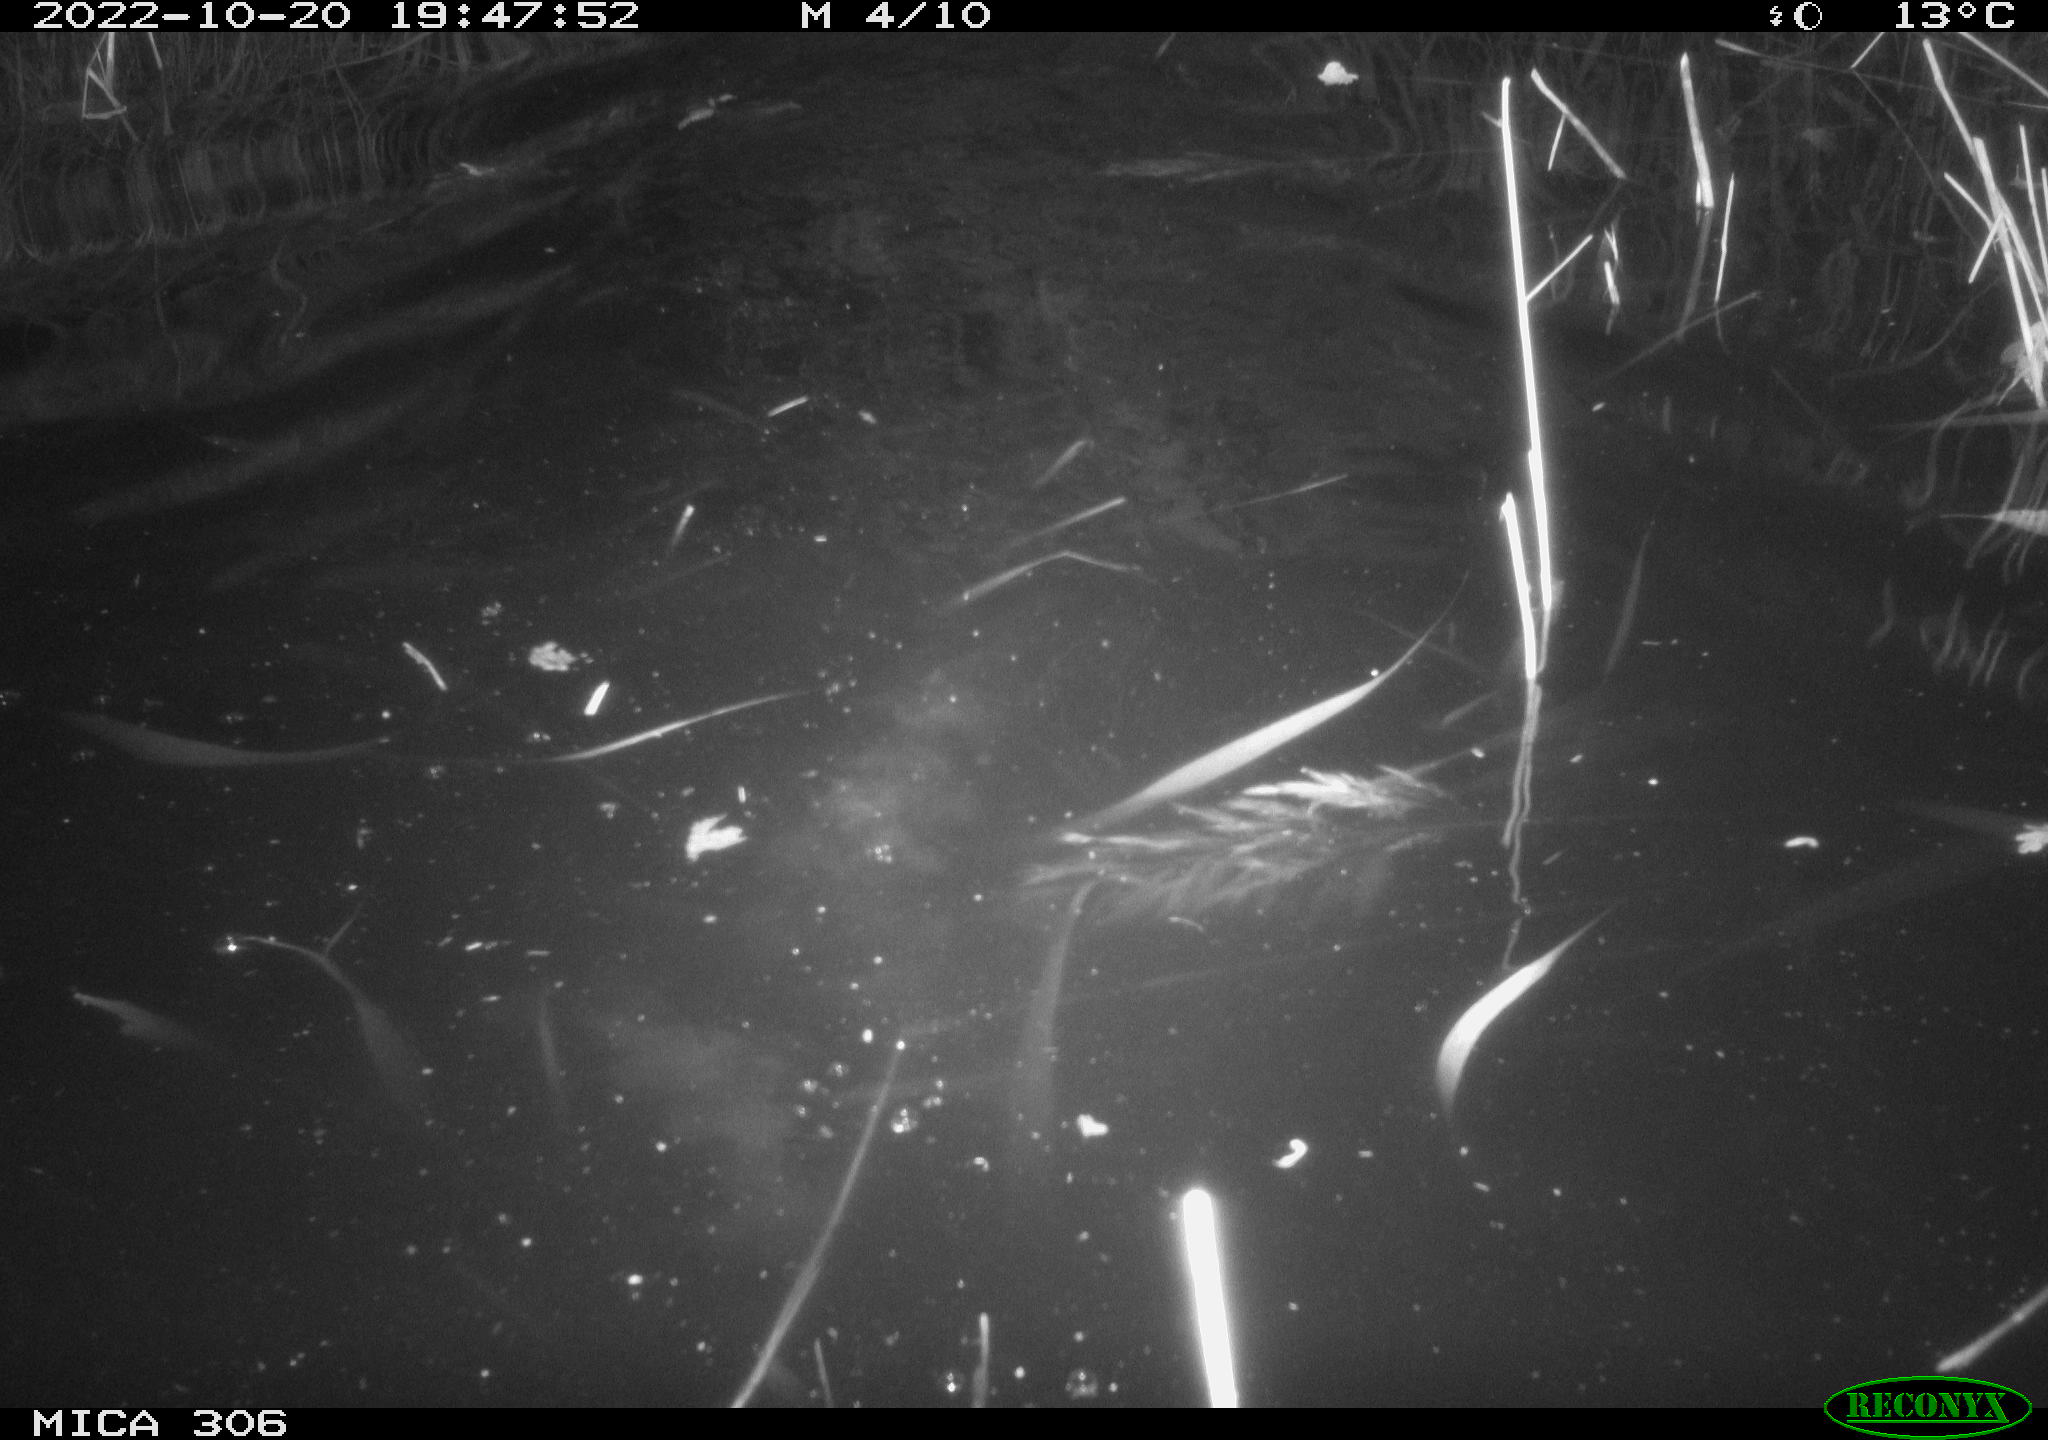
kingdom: Animalia
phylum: Chordata
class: Mammalia
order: Rodentia
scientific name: Rodentia
